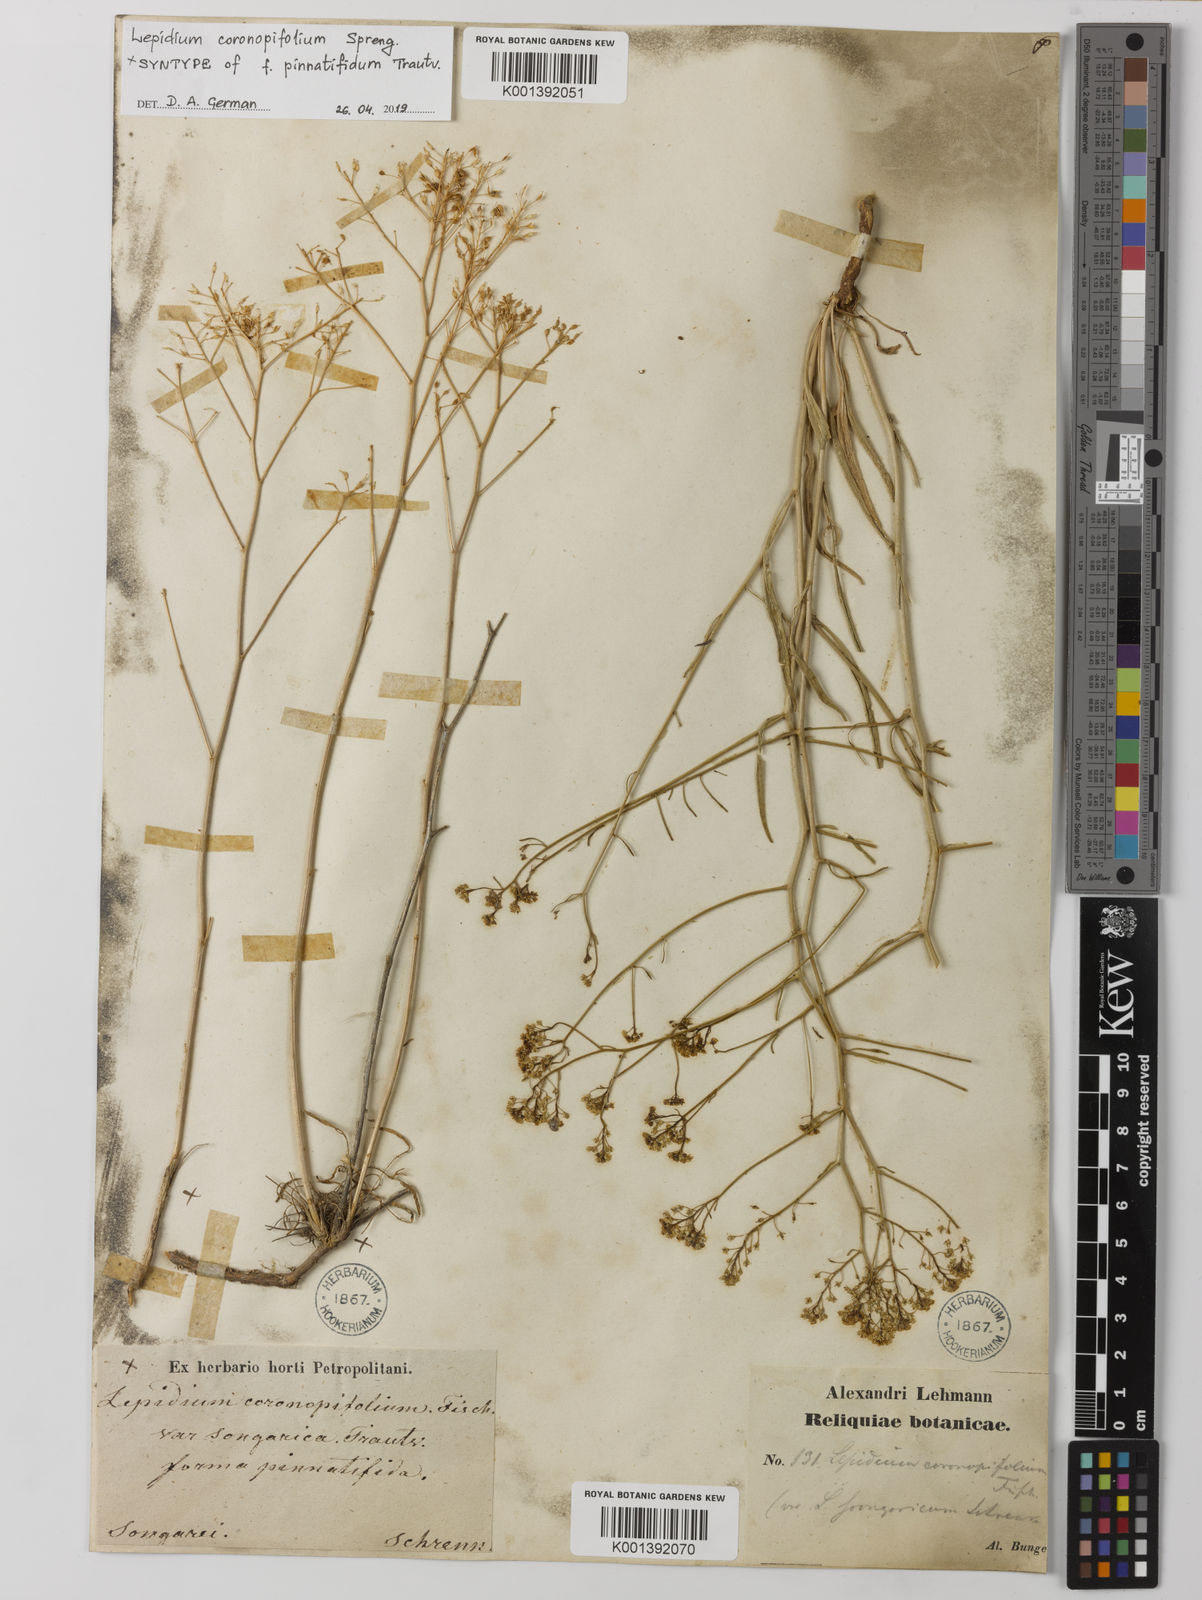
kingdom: Plantae
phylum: Tracheophyta
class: Magnoliopsida
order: Brassicales
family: Brassicaceae
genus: Lepidium
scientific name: Lepidium
